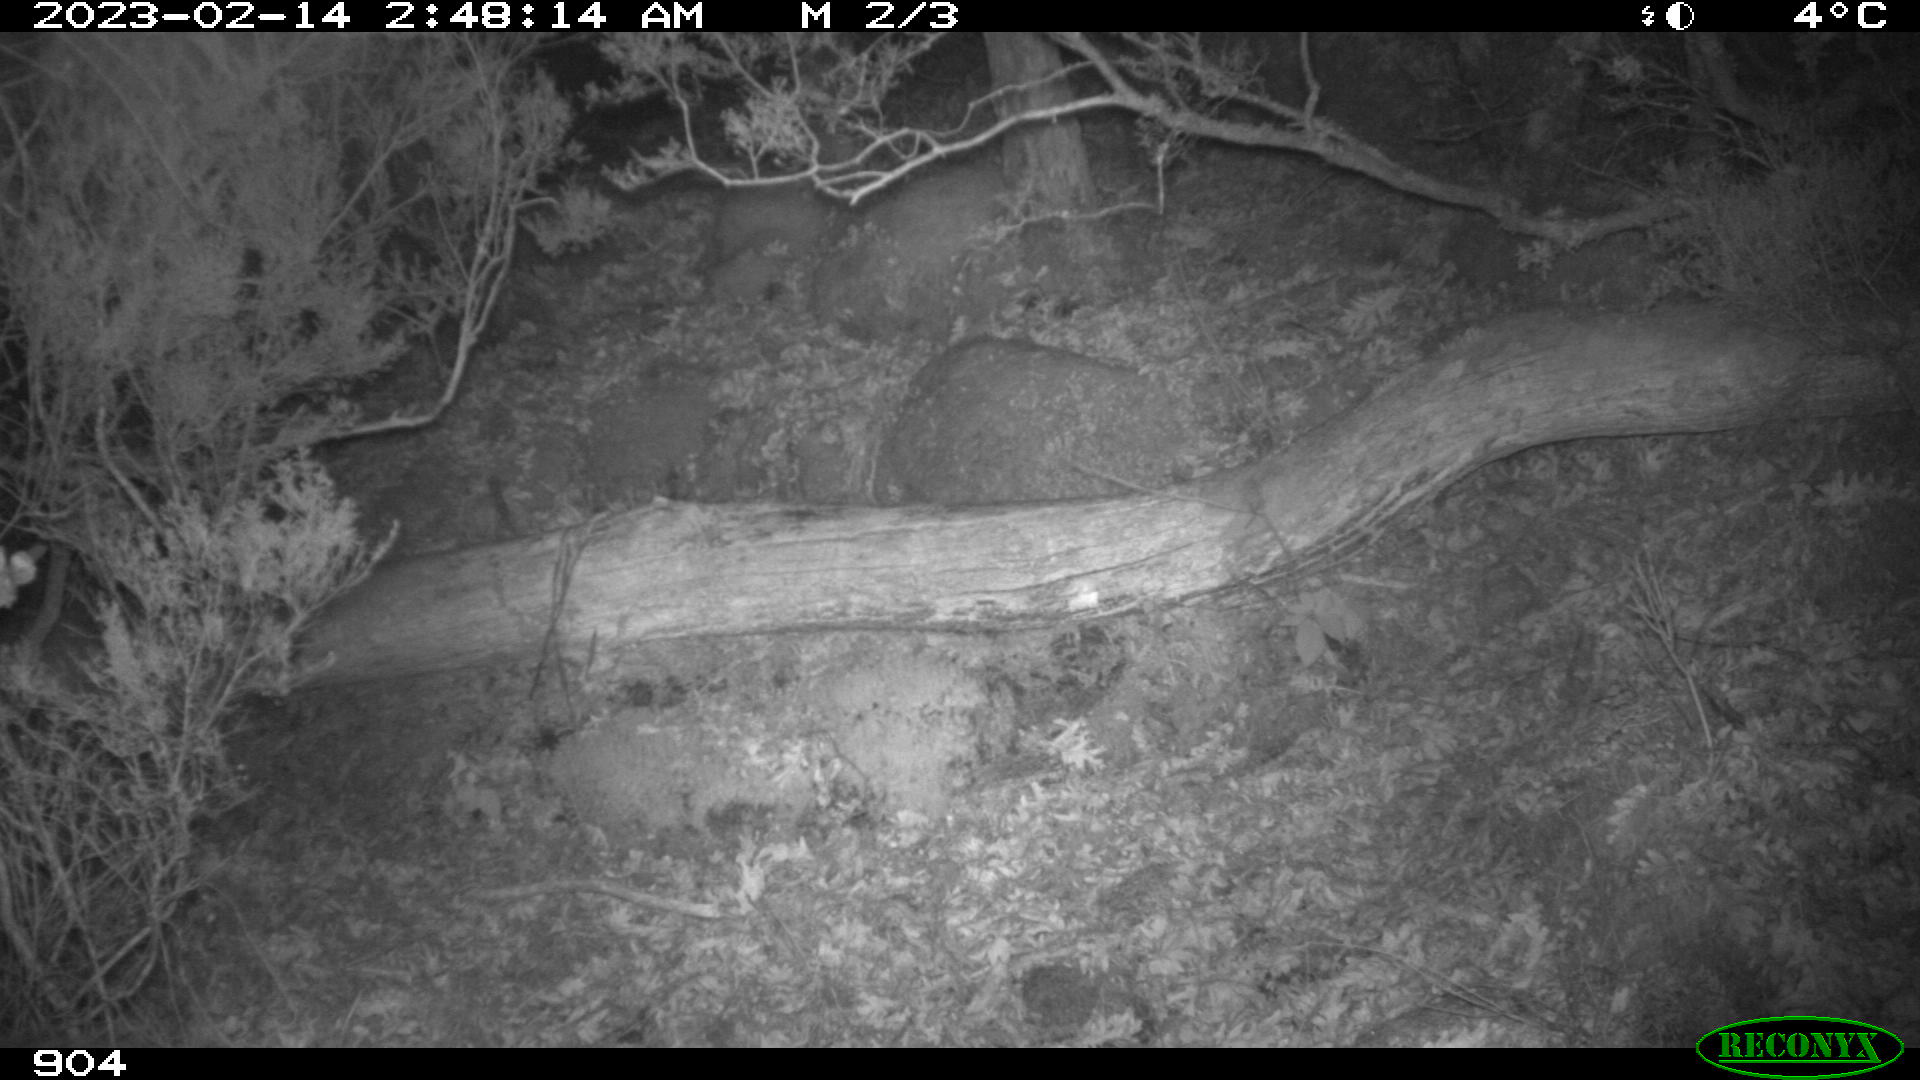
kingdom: Animalia
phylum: Chordata
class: Mammalia
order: Artiodactyla
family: Suidae
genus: Sus
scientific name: Sus scrofa
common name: Wild boar
